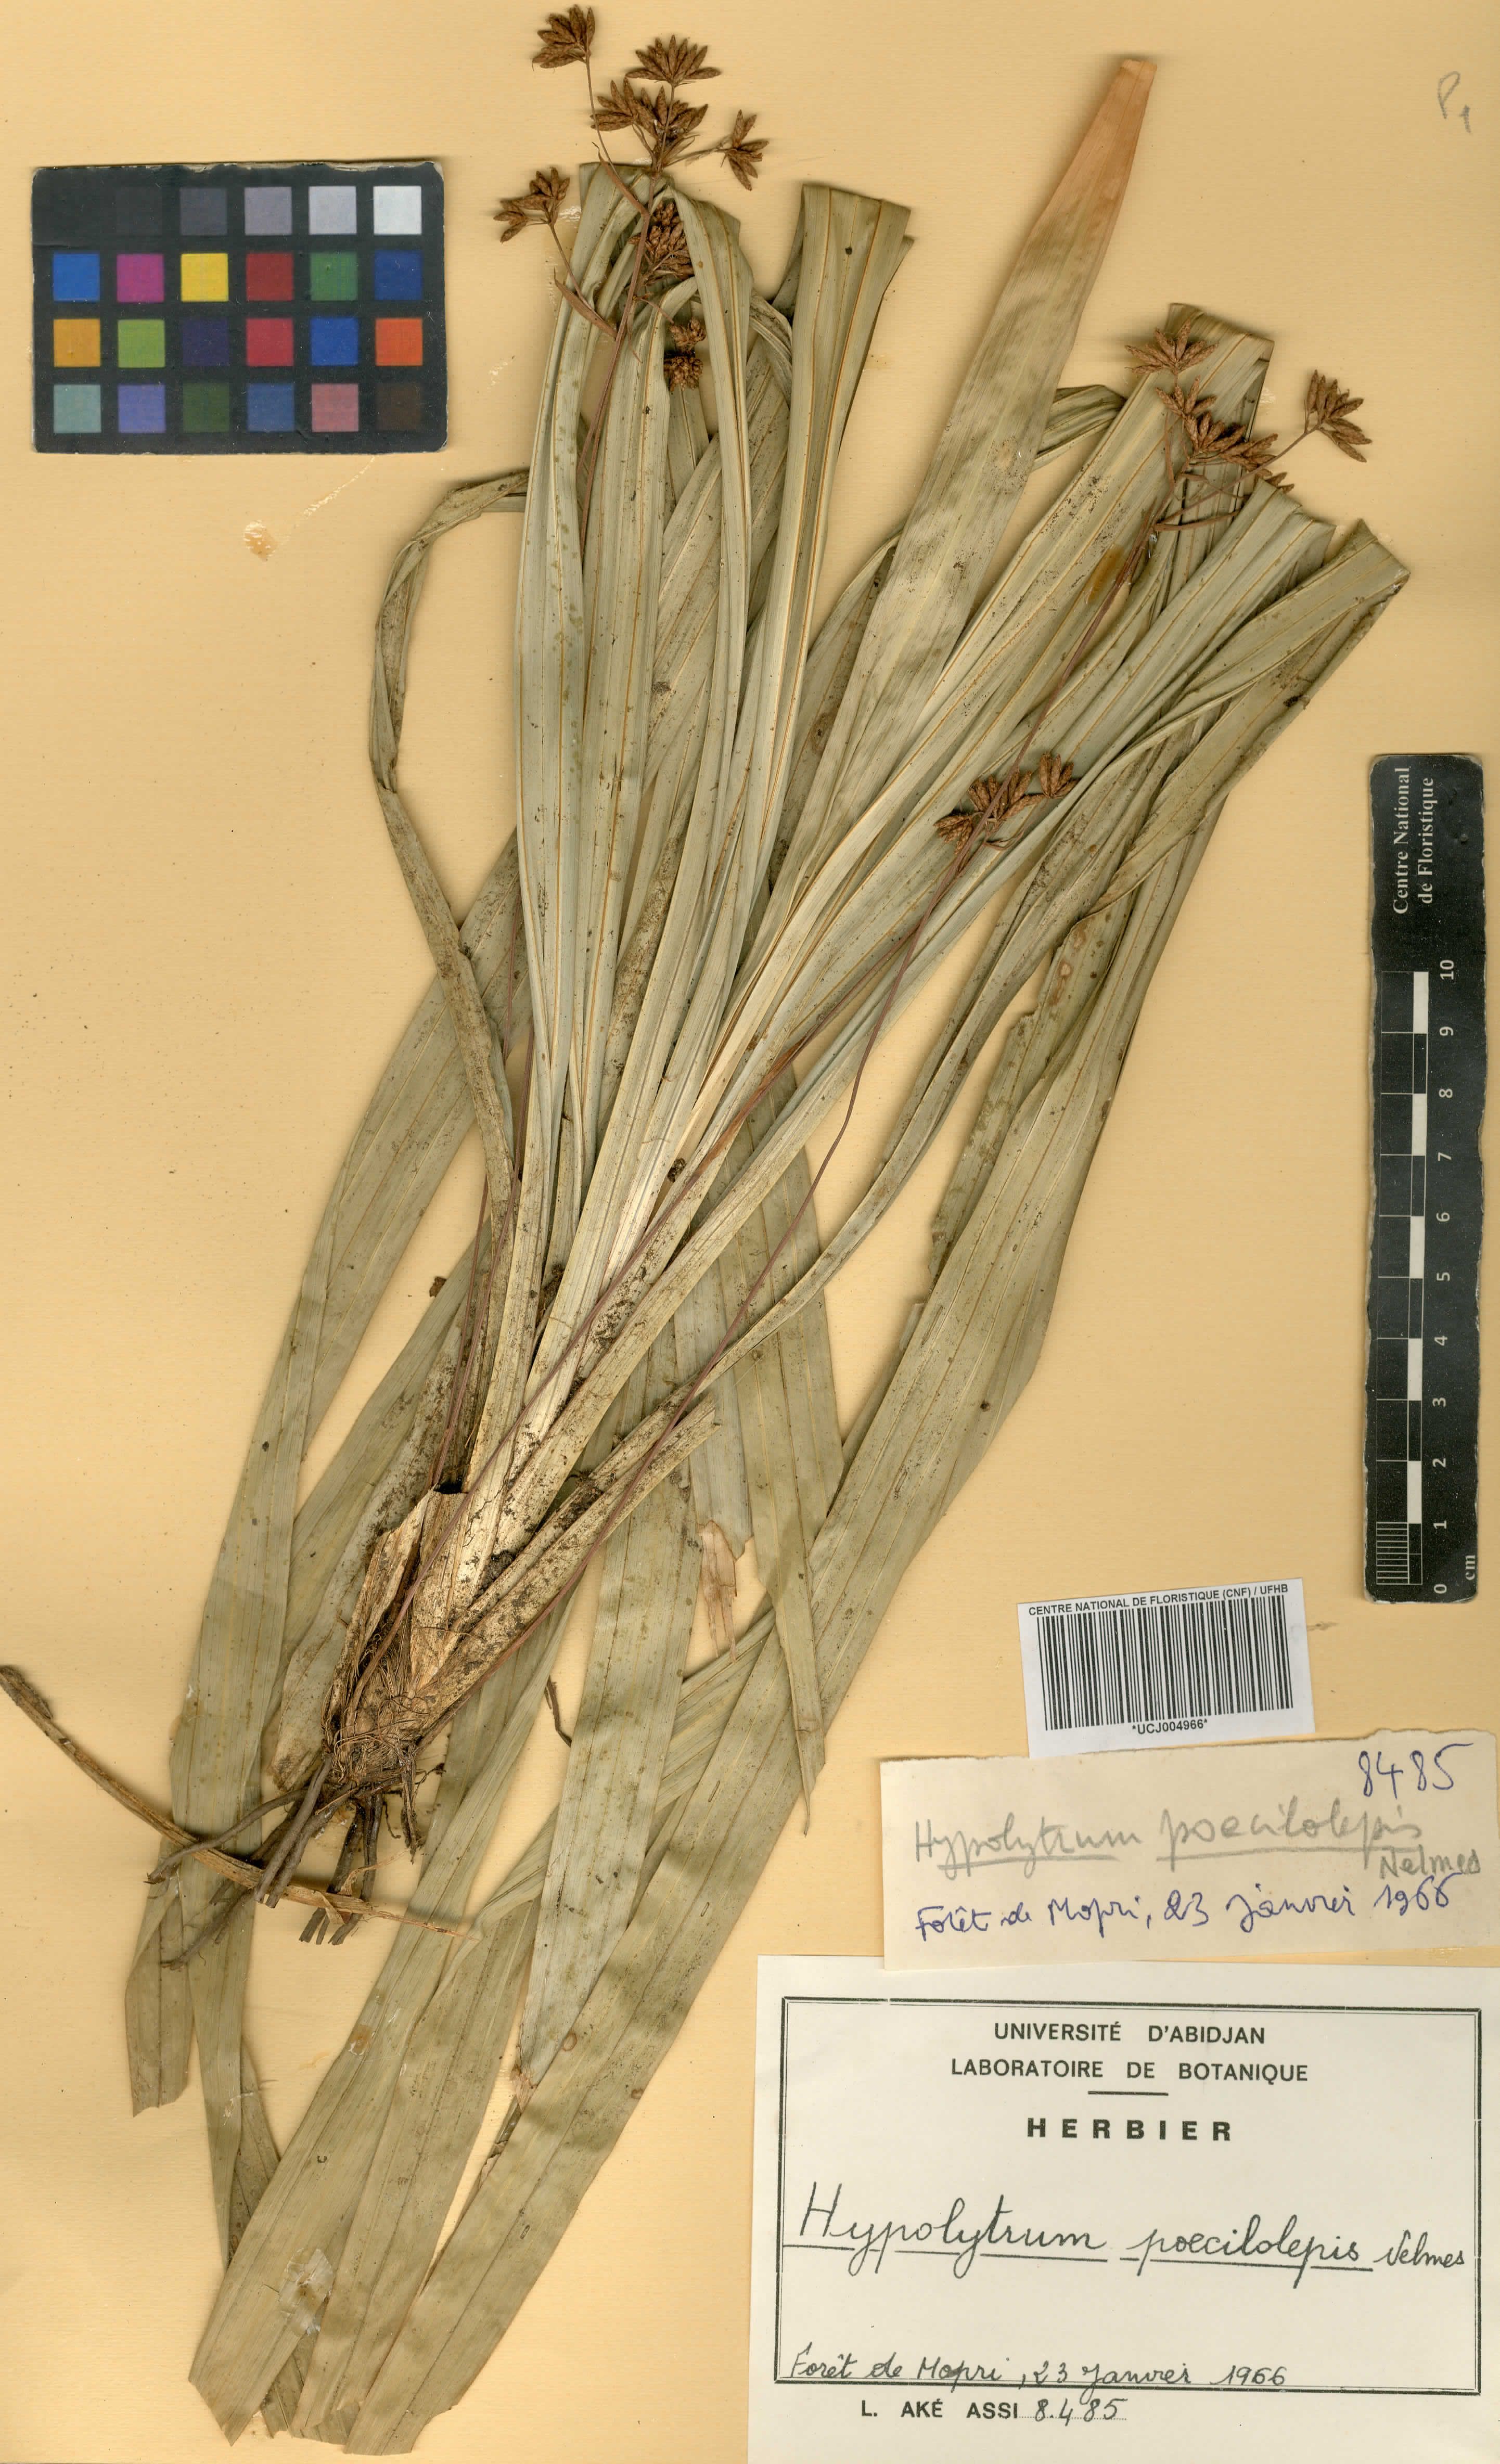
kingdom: Plantae
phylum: Tracheophyta
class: Liliopsida
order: Poales
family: Cyperaceae
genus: Hypolytrum
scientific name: Hypolytrum poecilolepis
